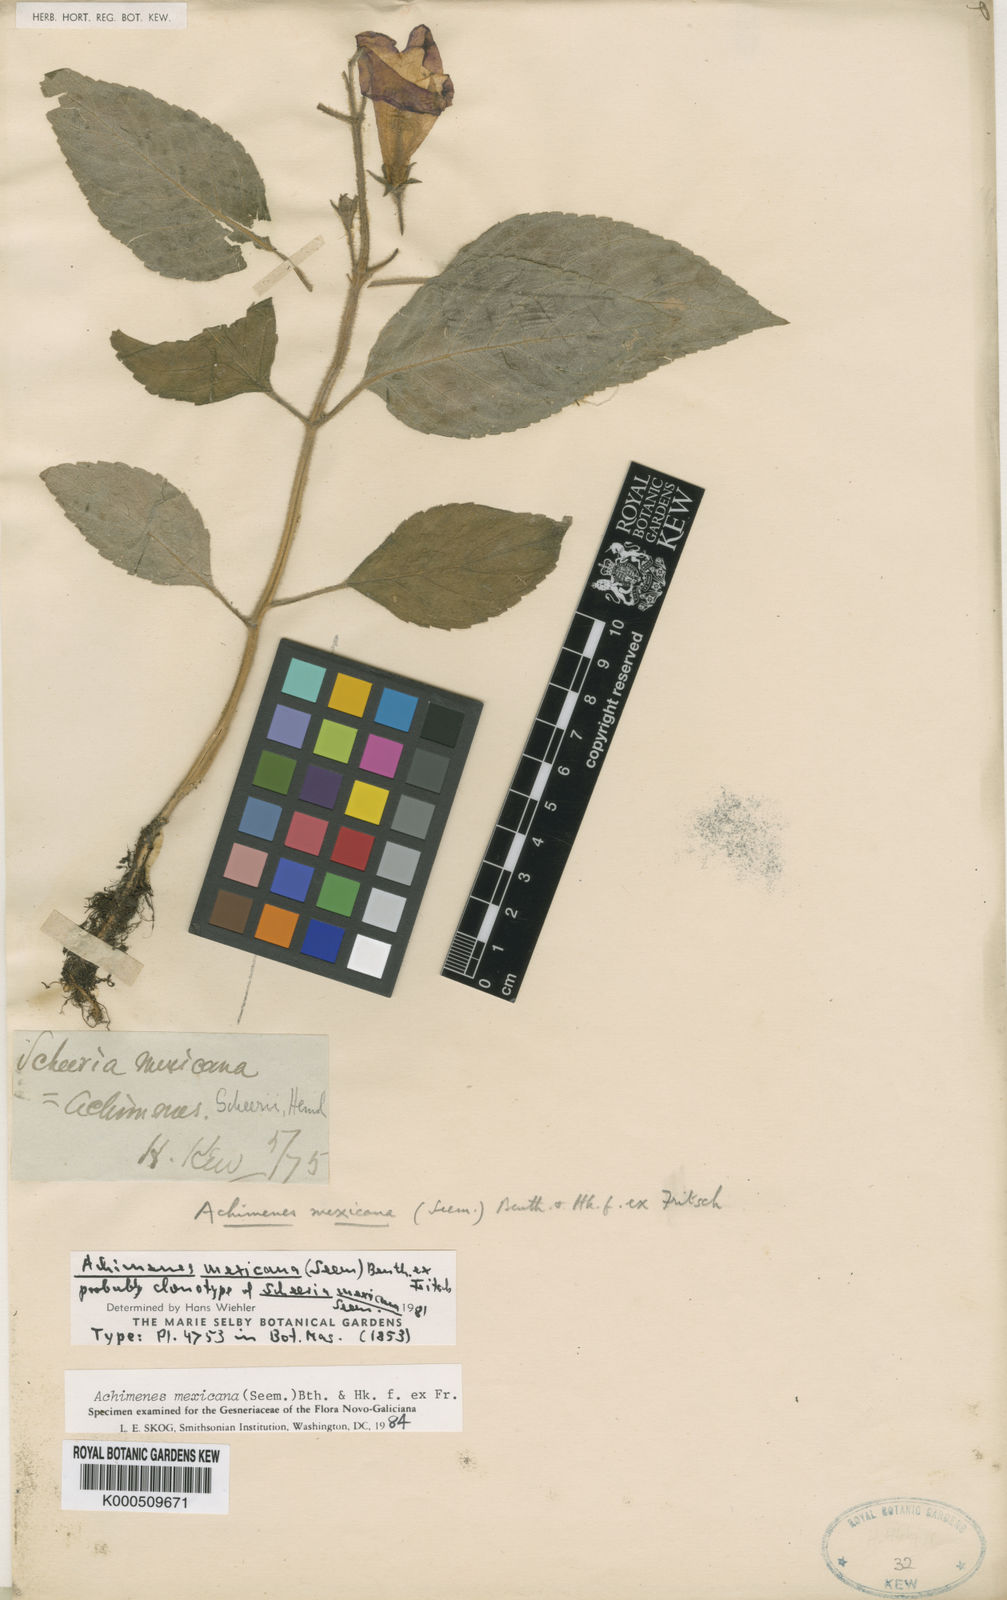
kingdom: Plantae
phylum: Tracheophyta
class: Magnoliopsida
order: Lamiales
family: Gesneriaceae
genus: Achimenes
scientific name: Achimenes mexicana
